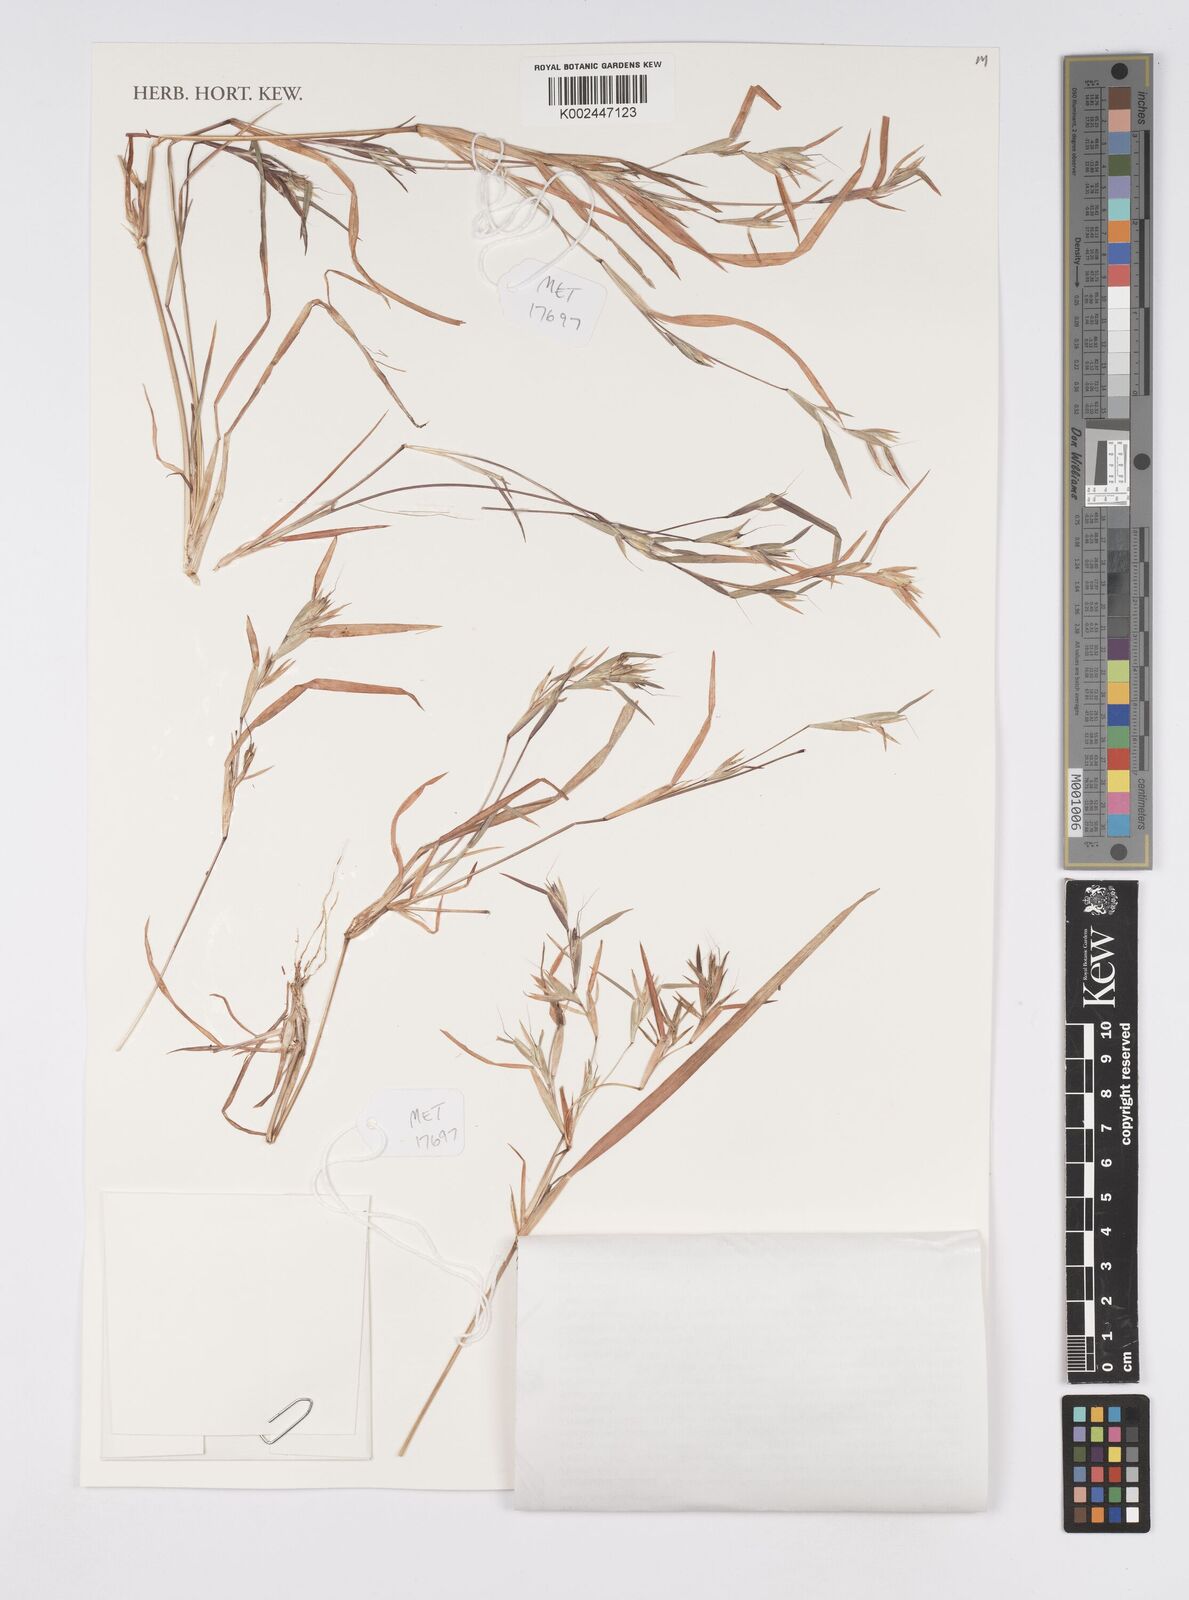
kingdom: Plantae
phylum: Tracheophyta
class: Liliopsida
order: Poales
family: Poaceae
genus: Iseilema
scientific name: Iseilema membranaceum
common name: Small flinders grass
